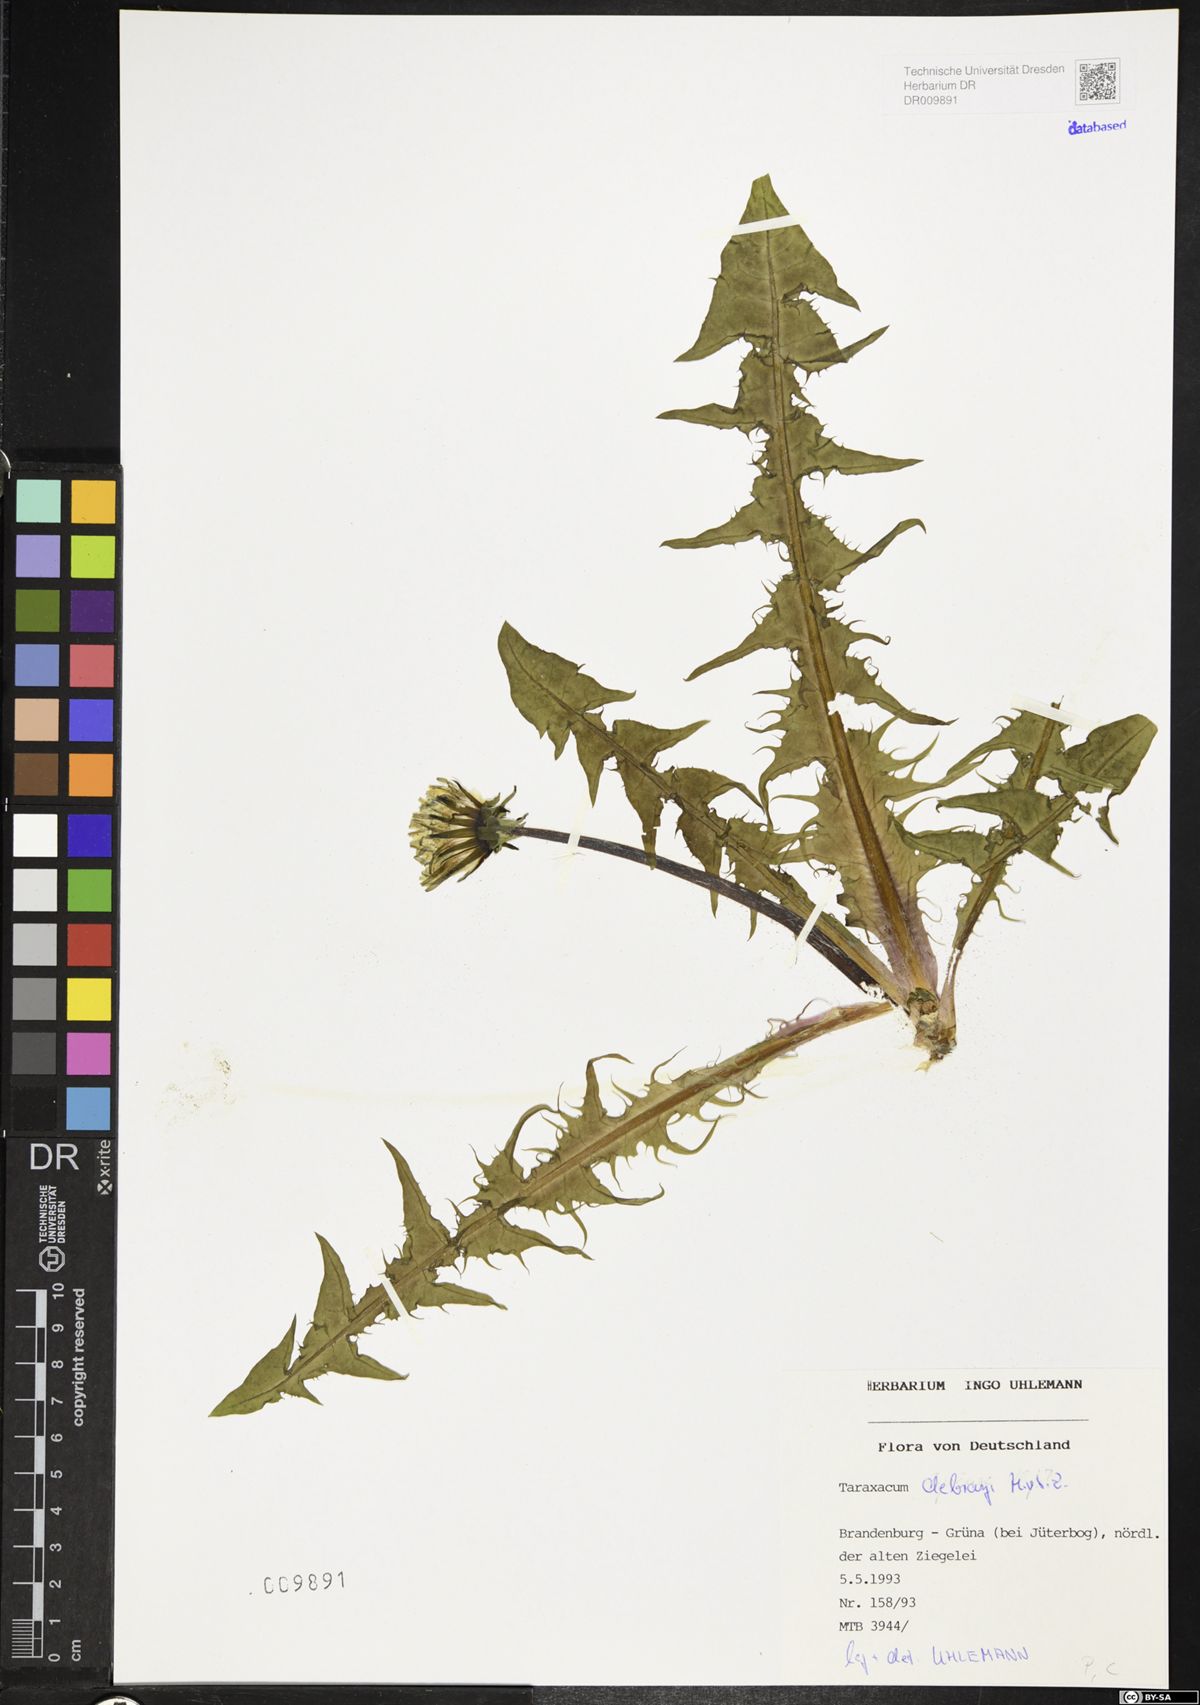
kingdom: Plantae
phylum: Tracheophyta
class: Magnoliopsida
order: Asterales
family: Asteraceae
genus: Taraxacum
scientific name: Taraxacum debrayi
